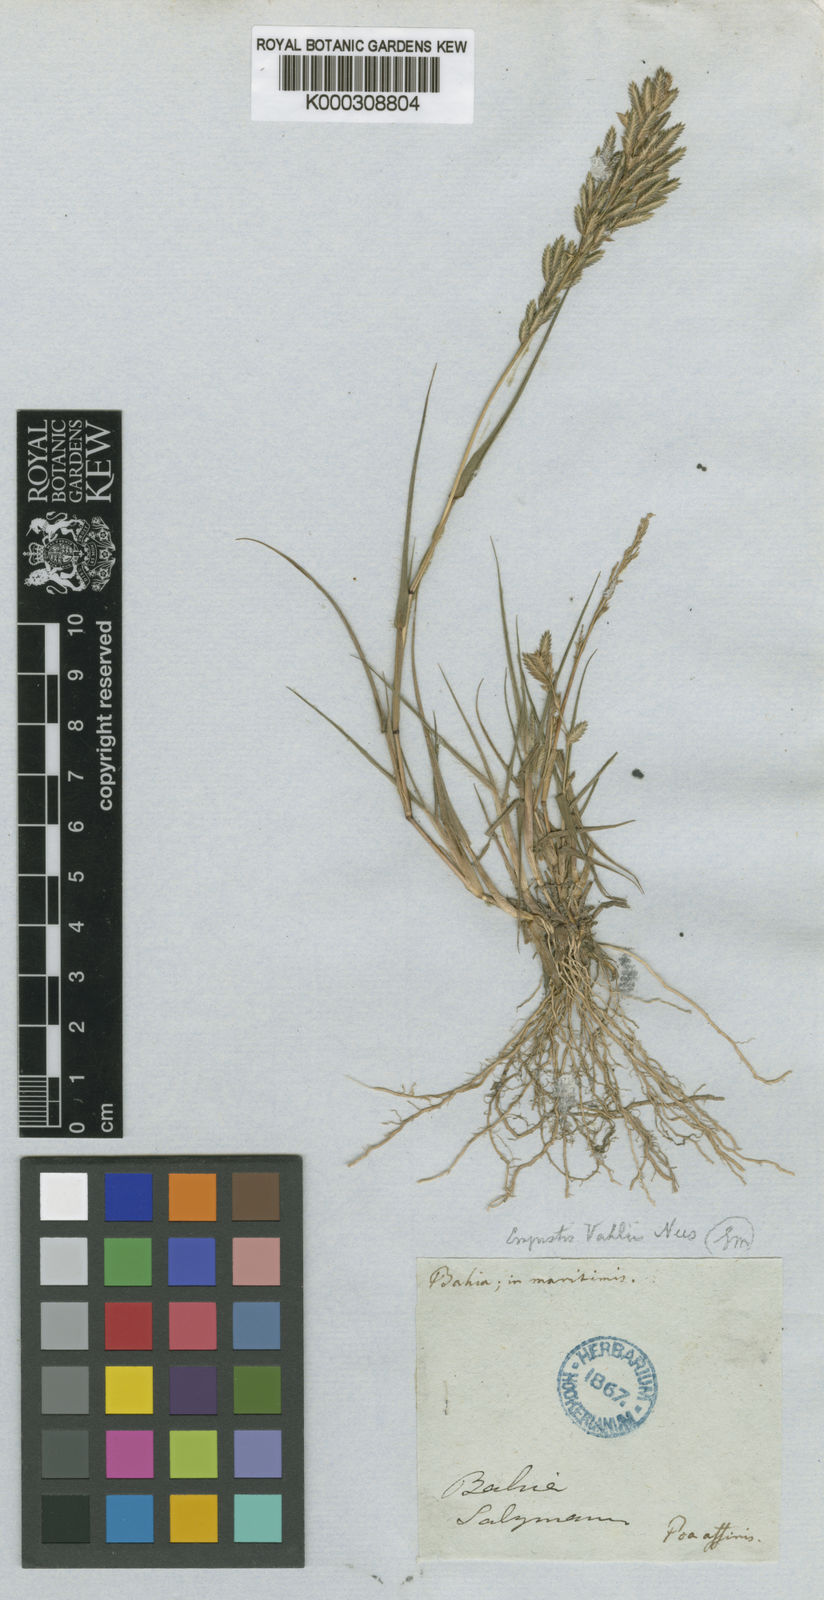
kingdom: Plantae
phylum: Tracheophyta
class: Liliopsida
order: Poales
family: Poaceae
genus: Eragrostis
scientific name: Eragrostis rufescens
